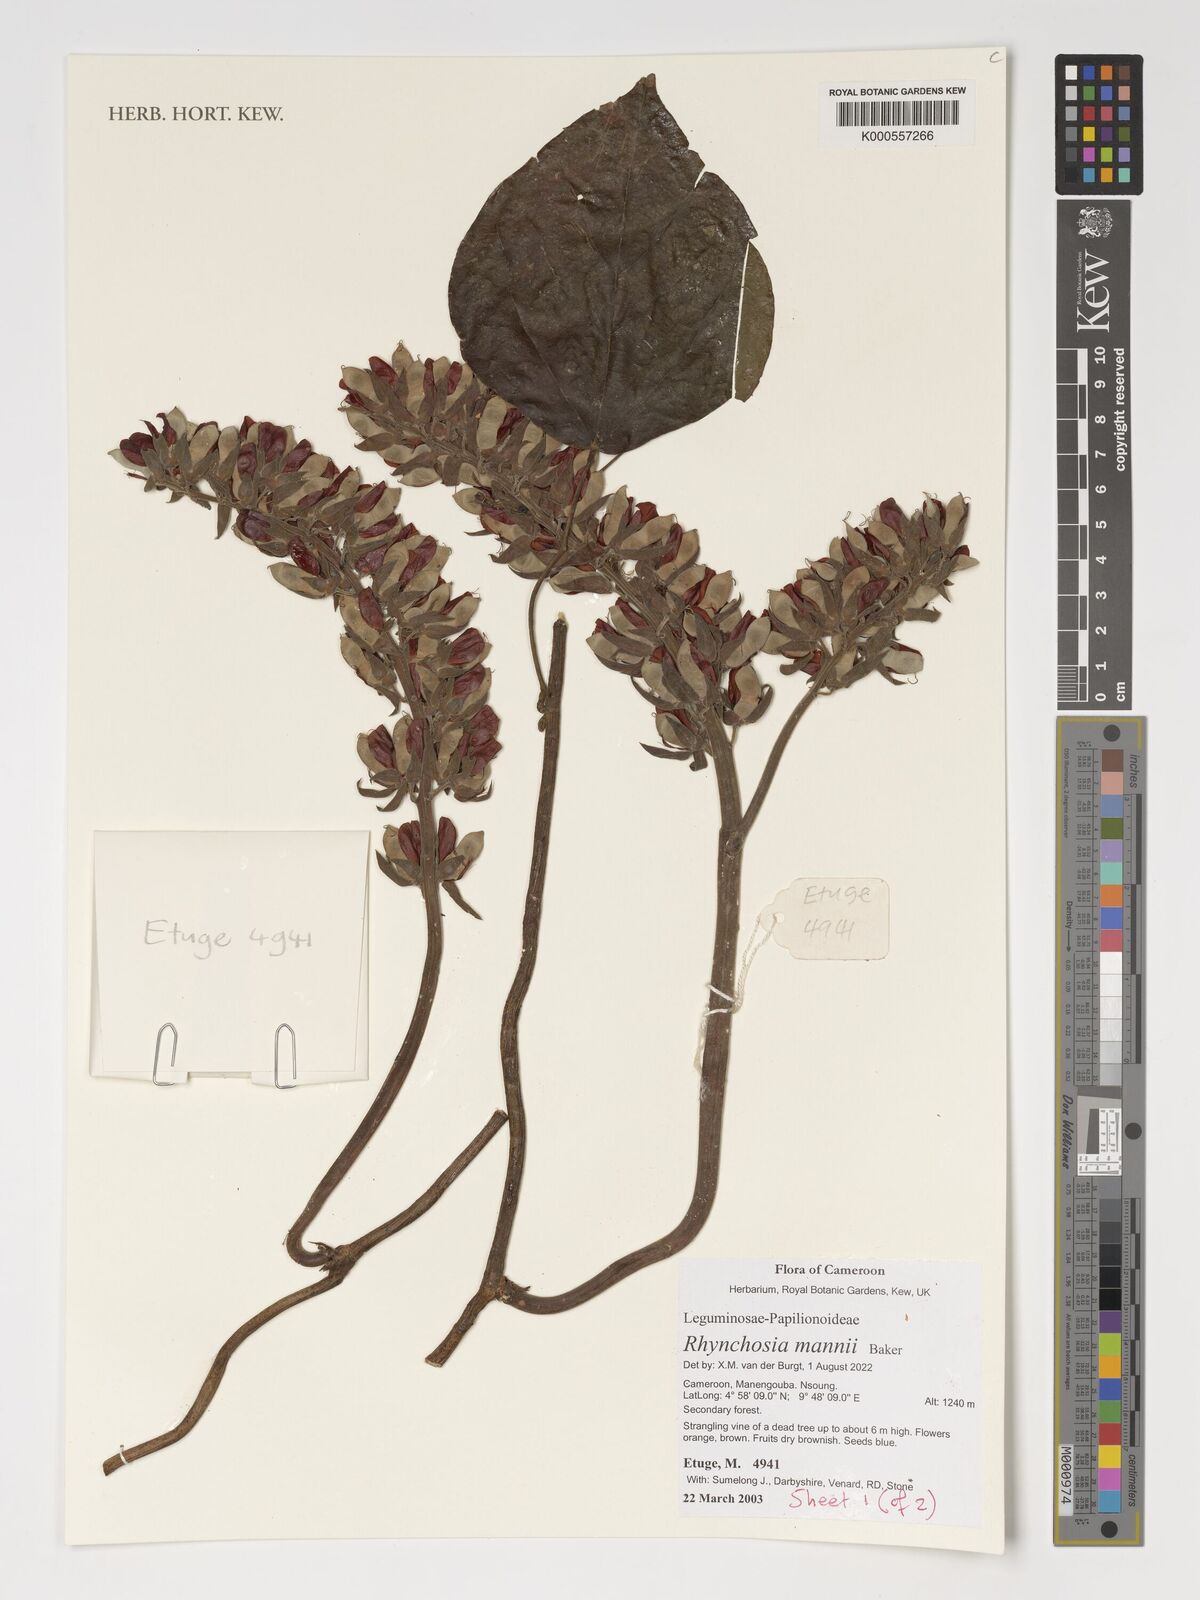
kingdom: Plantae
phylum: Tracheophyta
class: Magnoliopsida
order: Fabales
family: Fabaceae
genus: Rhynchosia
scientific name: Rhynchosia mannii
